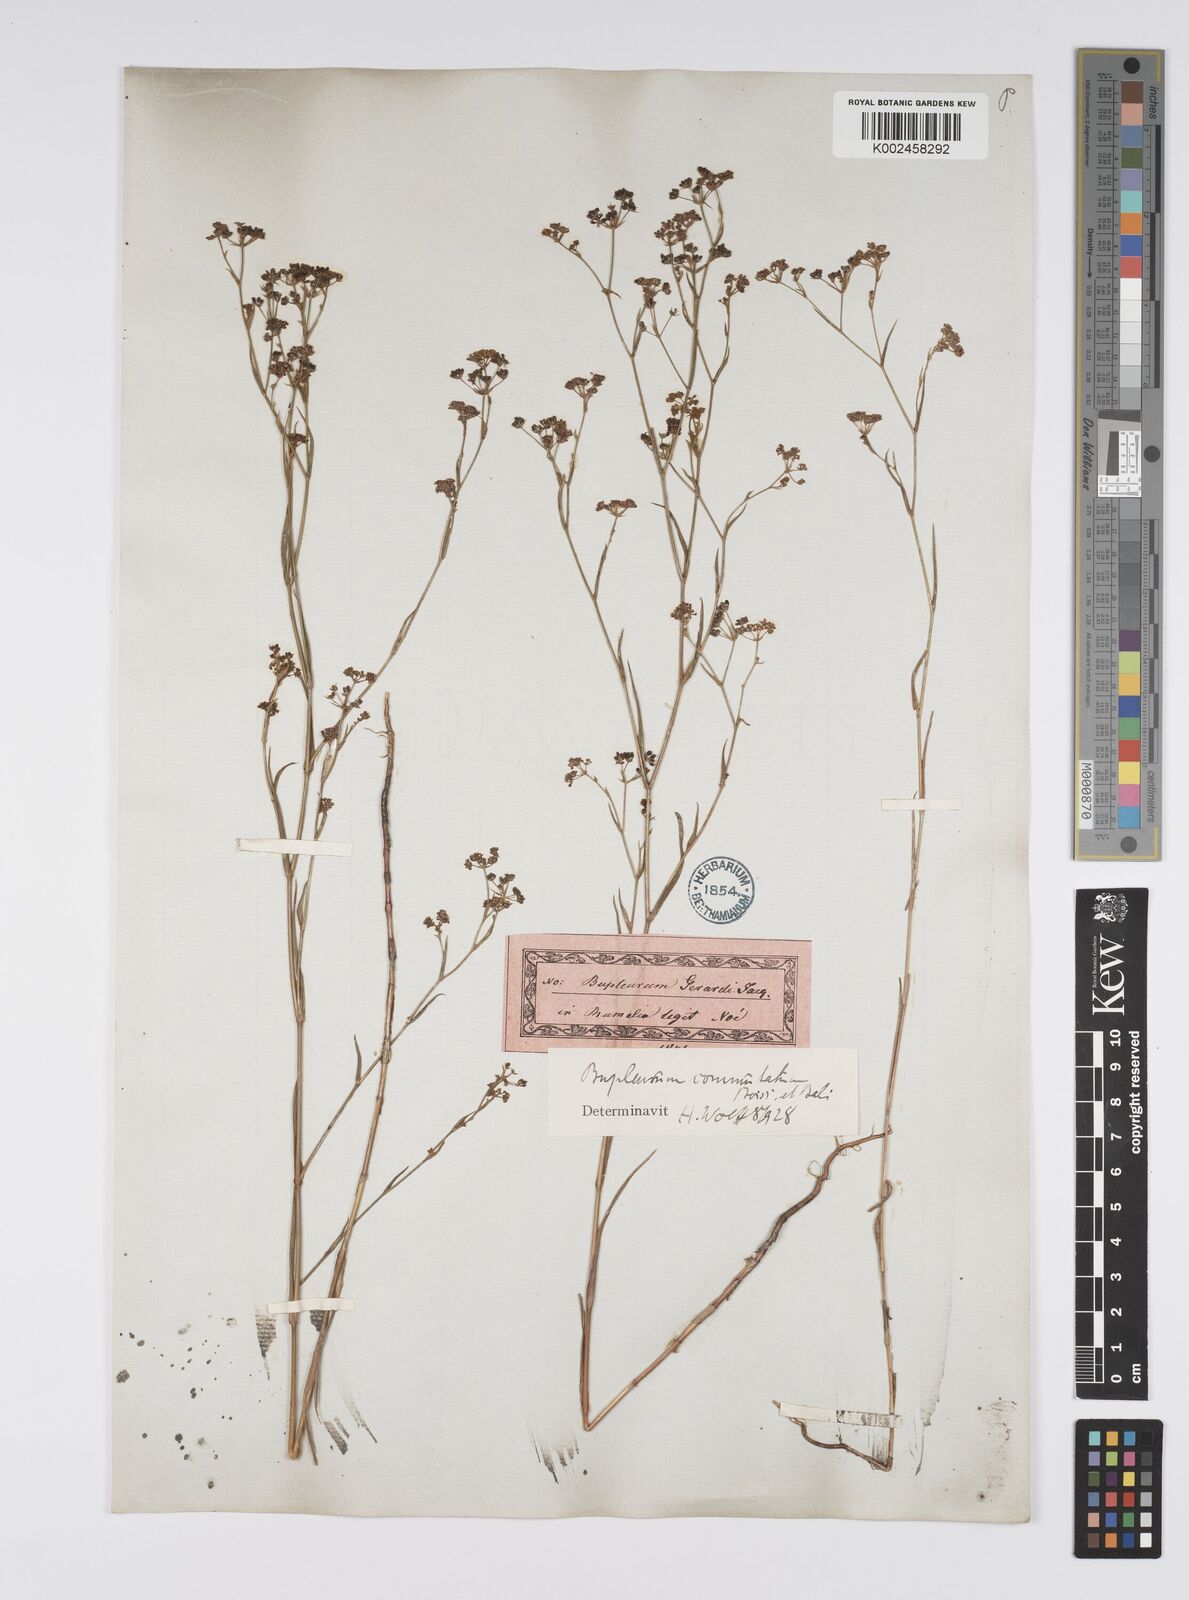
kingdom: Plantae
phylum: Tracheophyta
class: Magnoliopsida
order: Apiales
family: Apiaceae
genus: Bupleurum
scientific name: Bupleurum commutatum
